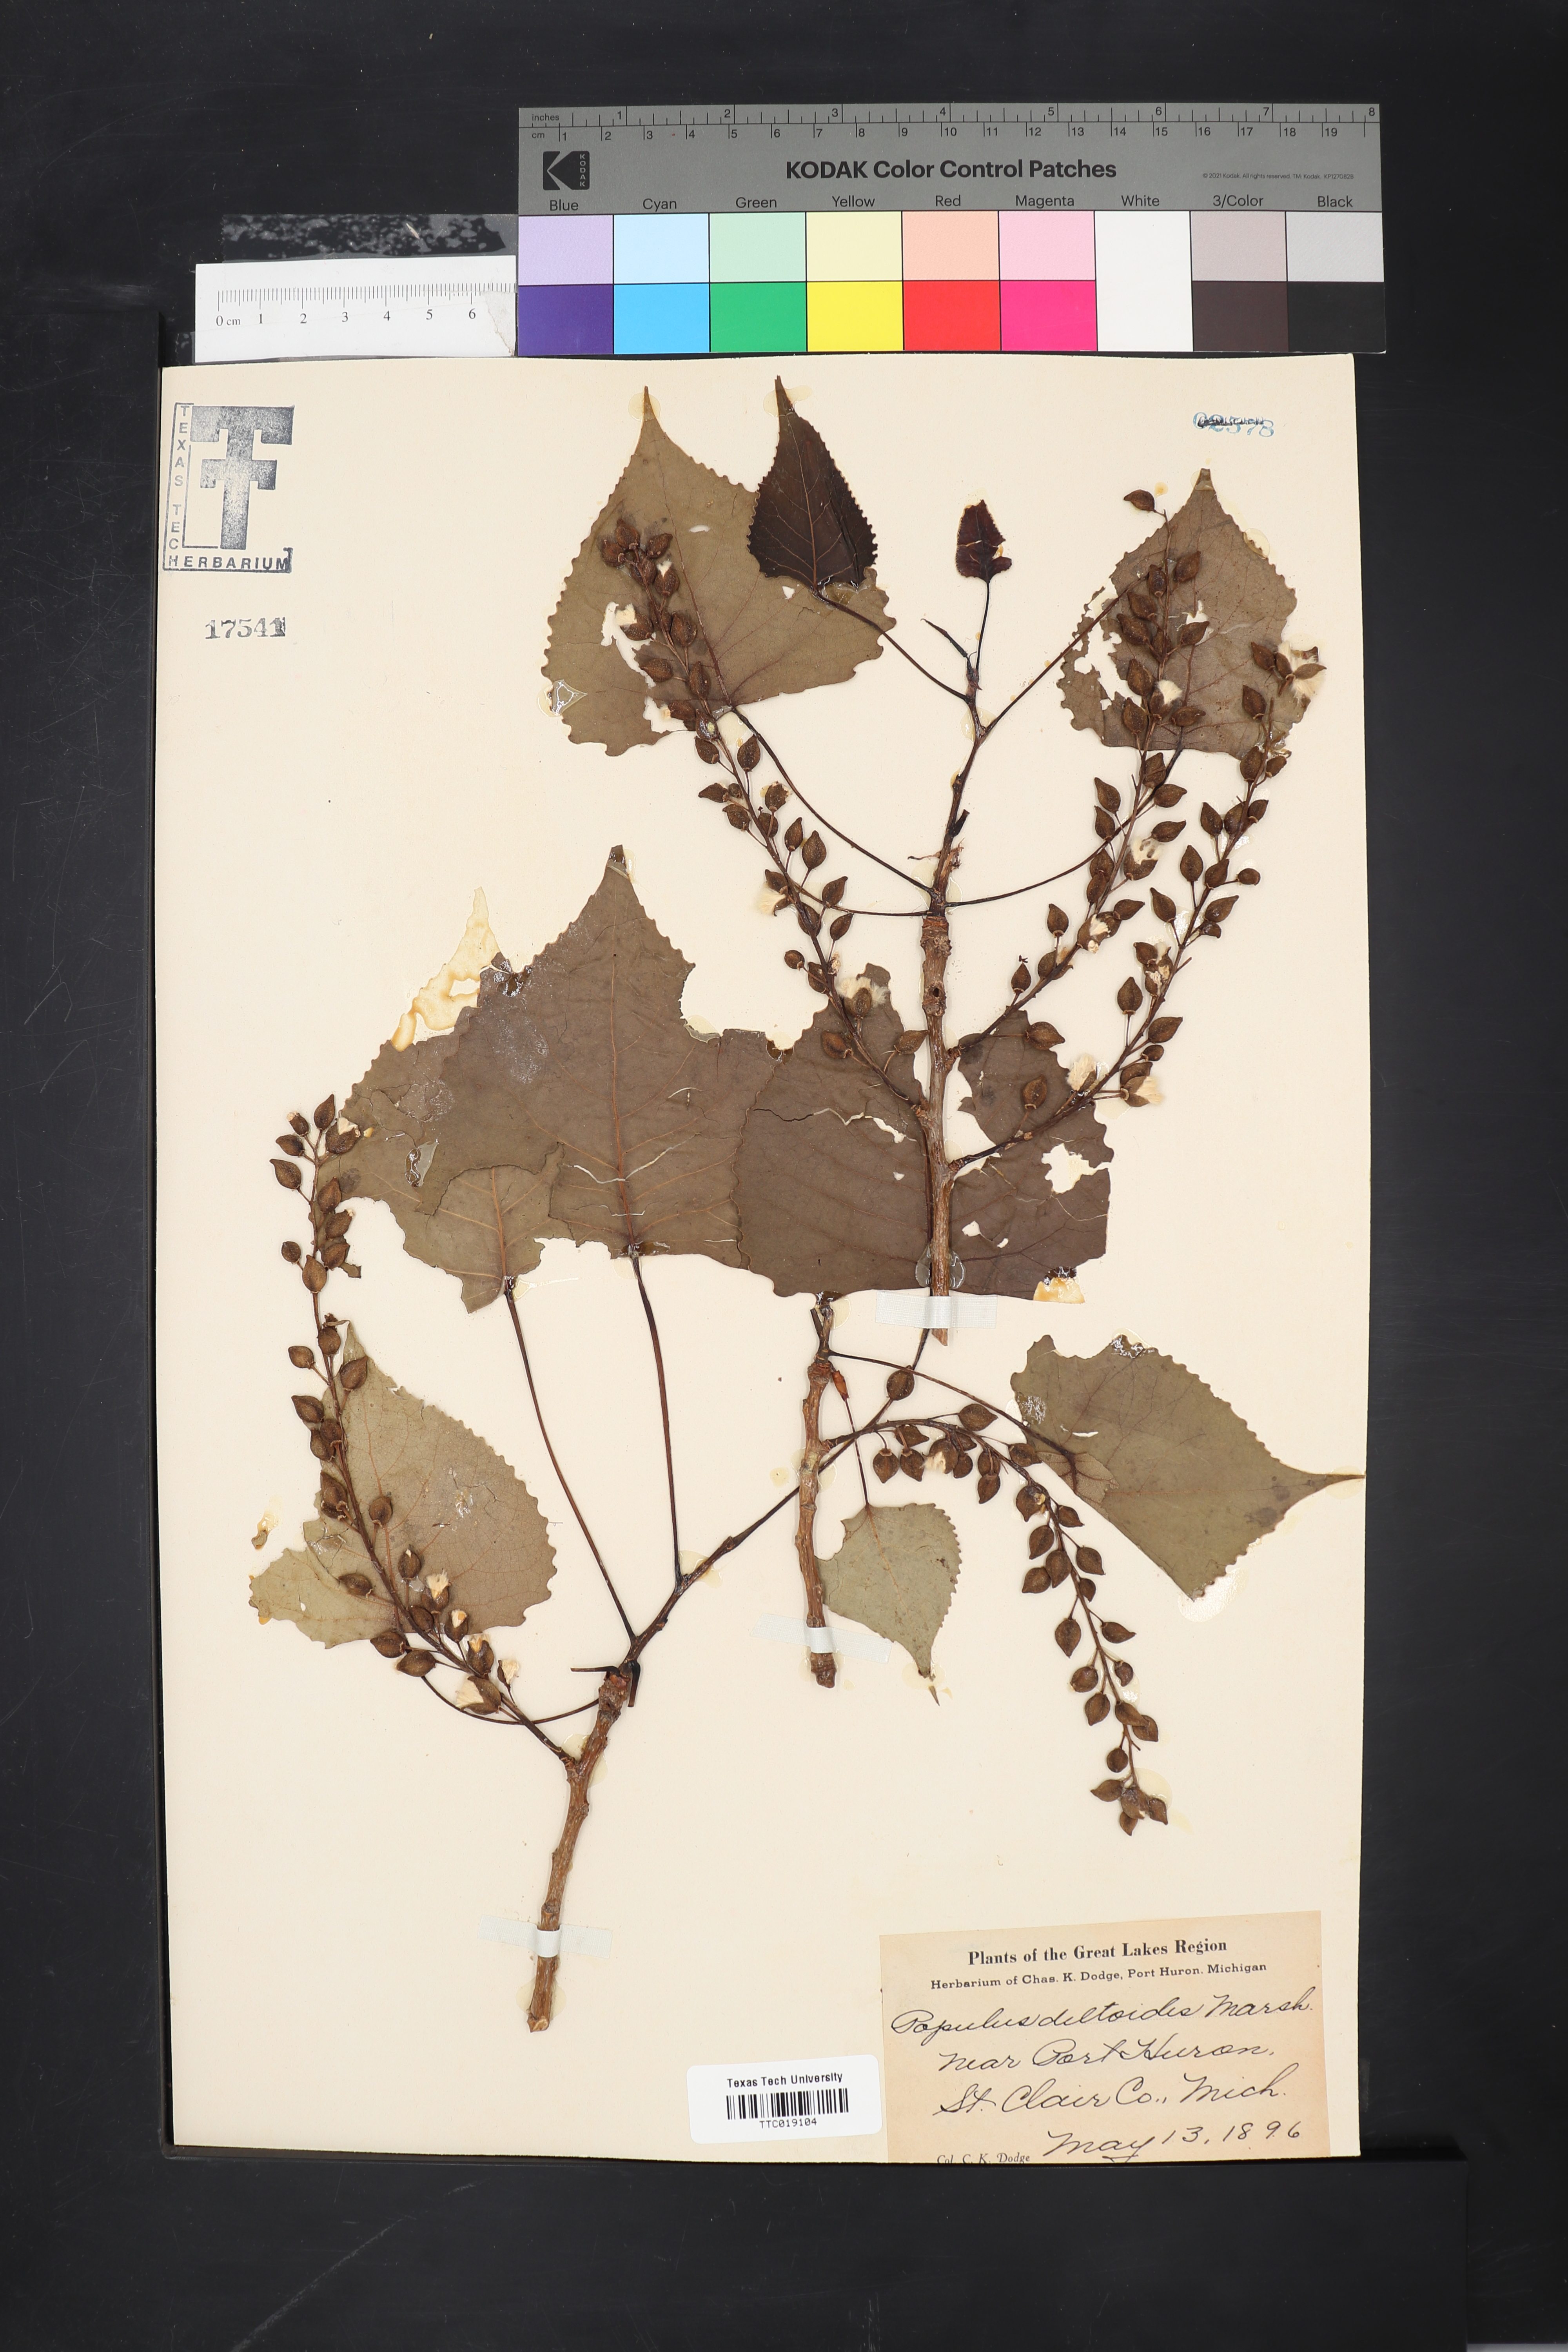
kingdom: Plantae
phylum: Tracheophyta
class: Magnoliopsida
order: Malpighiales
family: Salicaceae
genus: Populus
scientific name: Populus deltoides
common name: Eastern cottonwood
